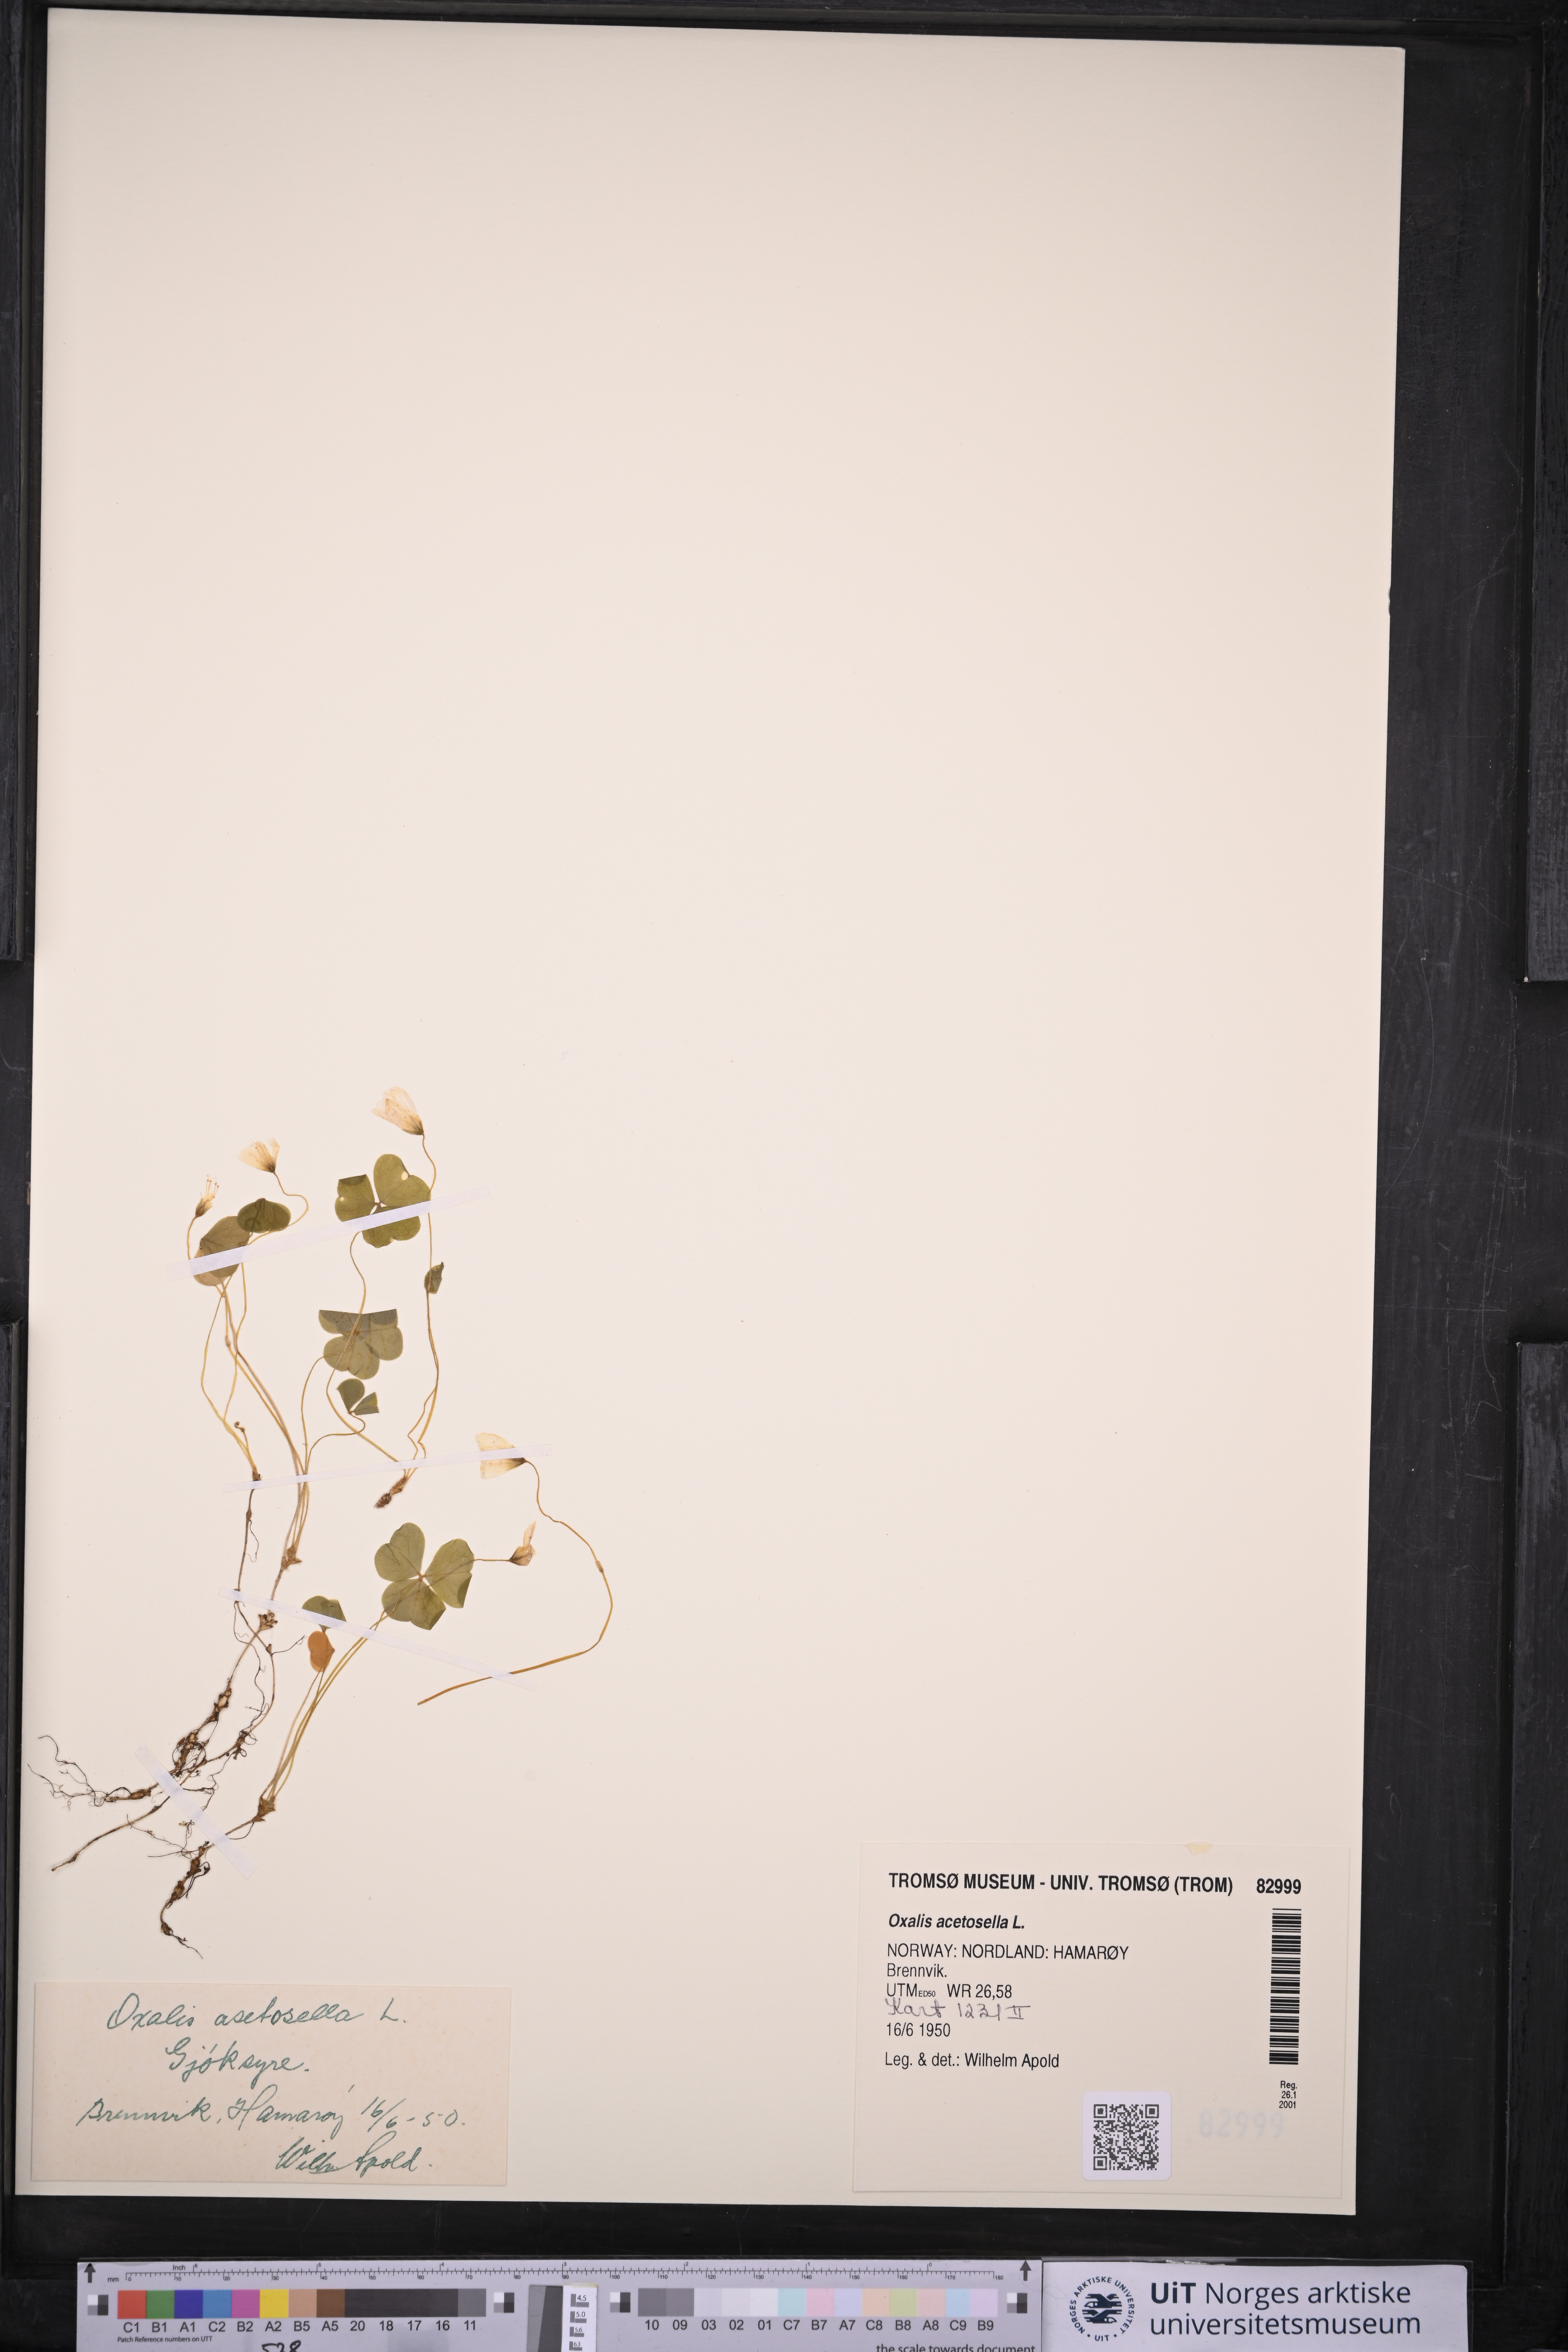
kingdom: Plantae
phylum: Tracheophyta
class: Magnoliopsida
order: Oxalidales
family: Oxalidaceae
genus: Oxalis
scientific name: Oxalis acetosella
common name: Wood-sorrel
